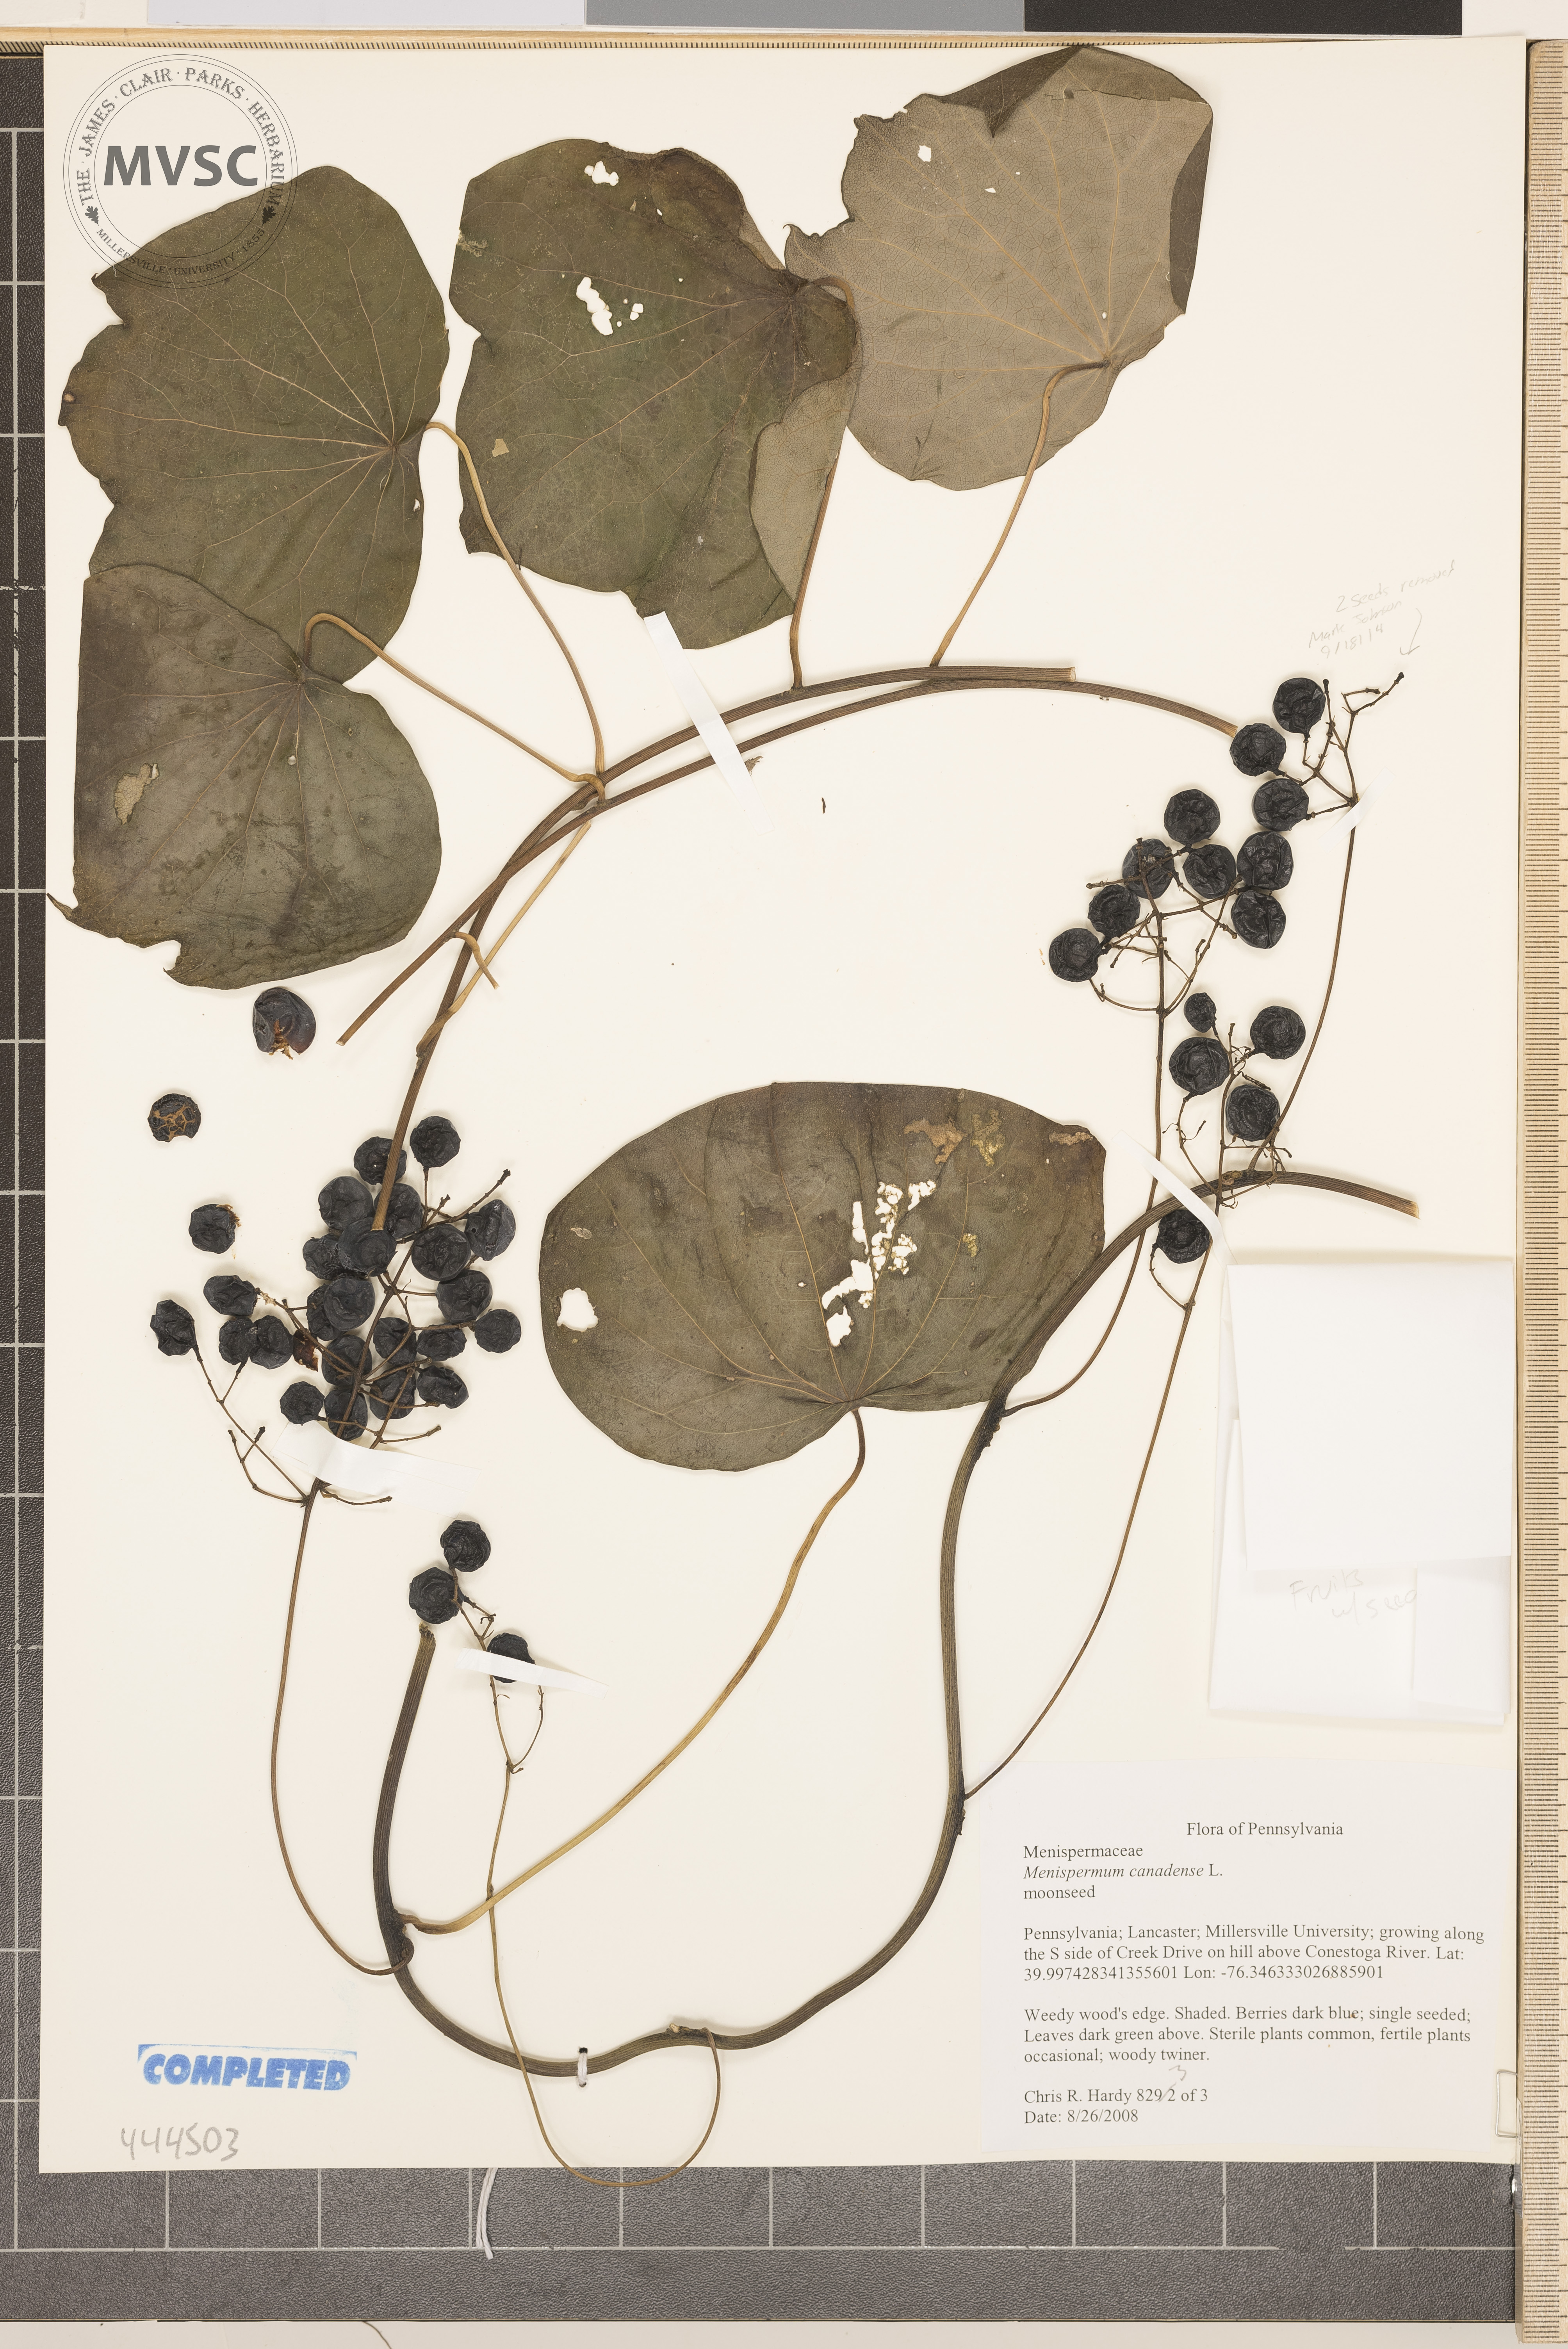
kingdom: Plantae
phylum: Tracheophyta
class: Magnoliopsida
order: Ranunculales
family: Menispermaceae
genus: Menispermum
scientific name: Menispermum canadense
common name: Moonseed
